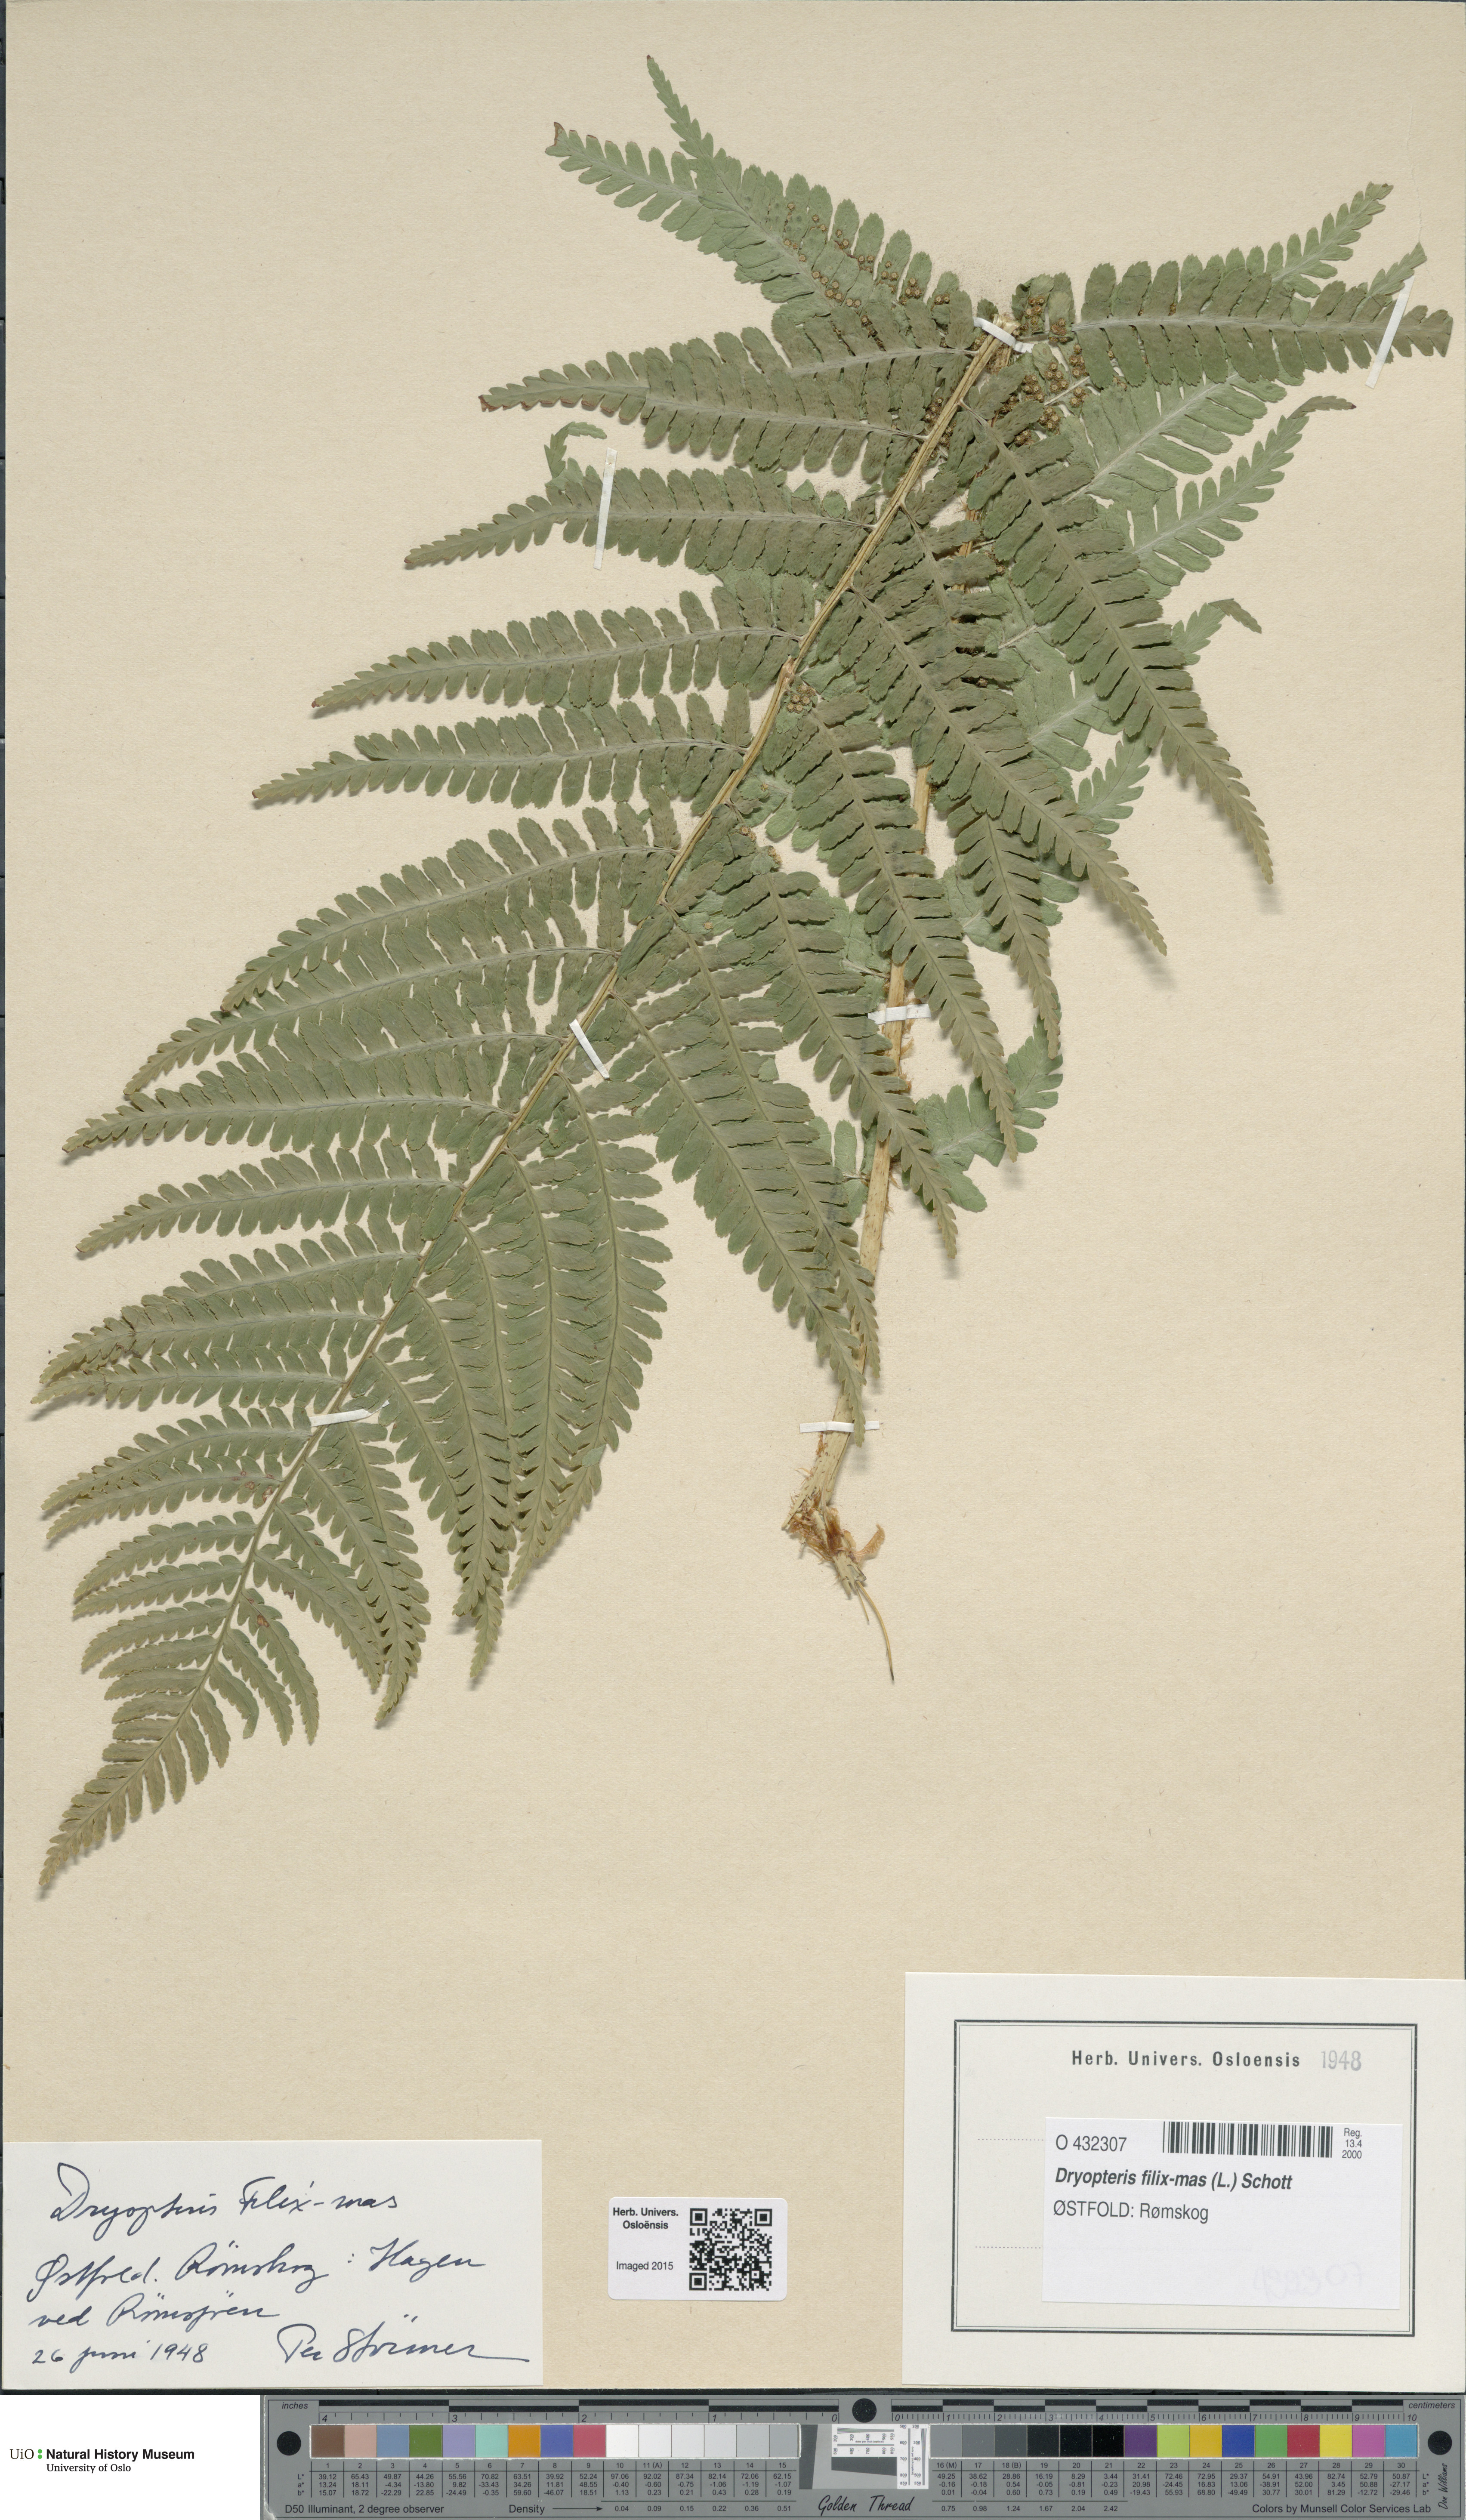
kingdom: Plantae
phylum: Tracheophyta
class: Polypodiopsida
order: Polypodiales
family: Dryopteridaceae
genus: Dryopteris
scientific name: Dryopteris filix-mas
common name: Male fern
